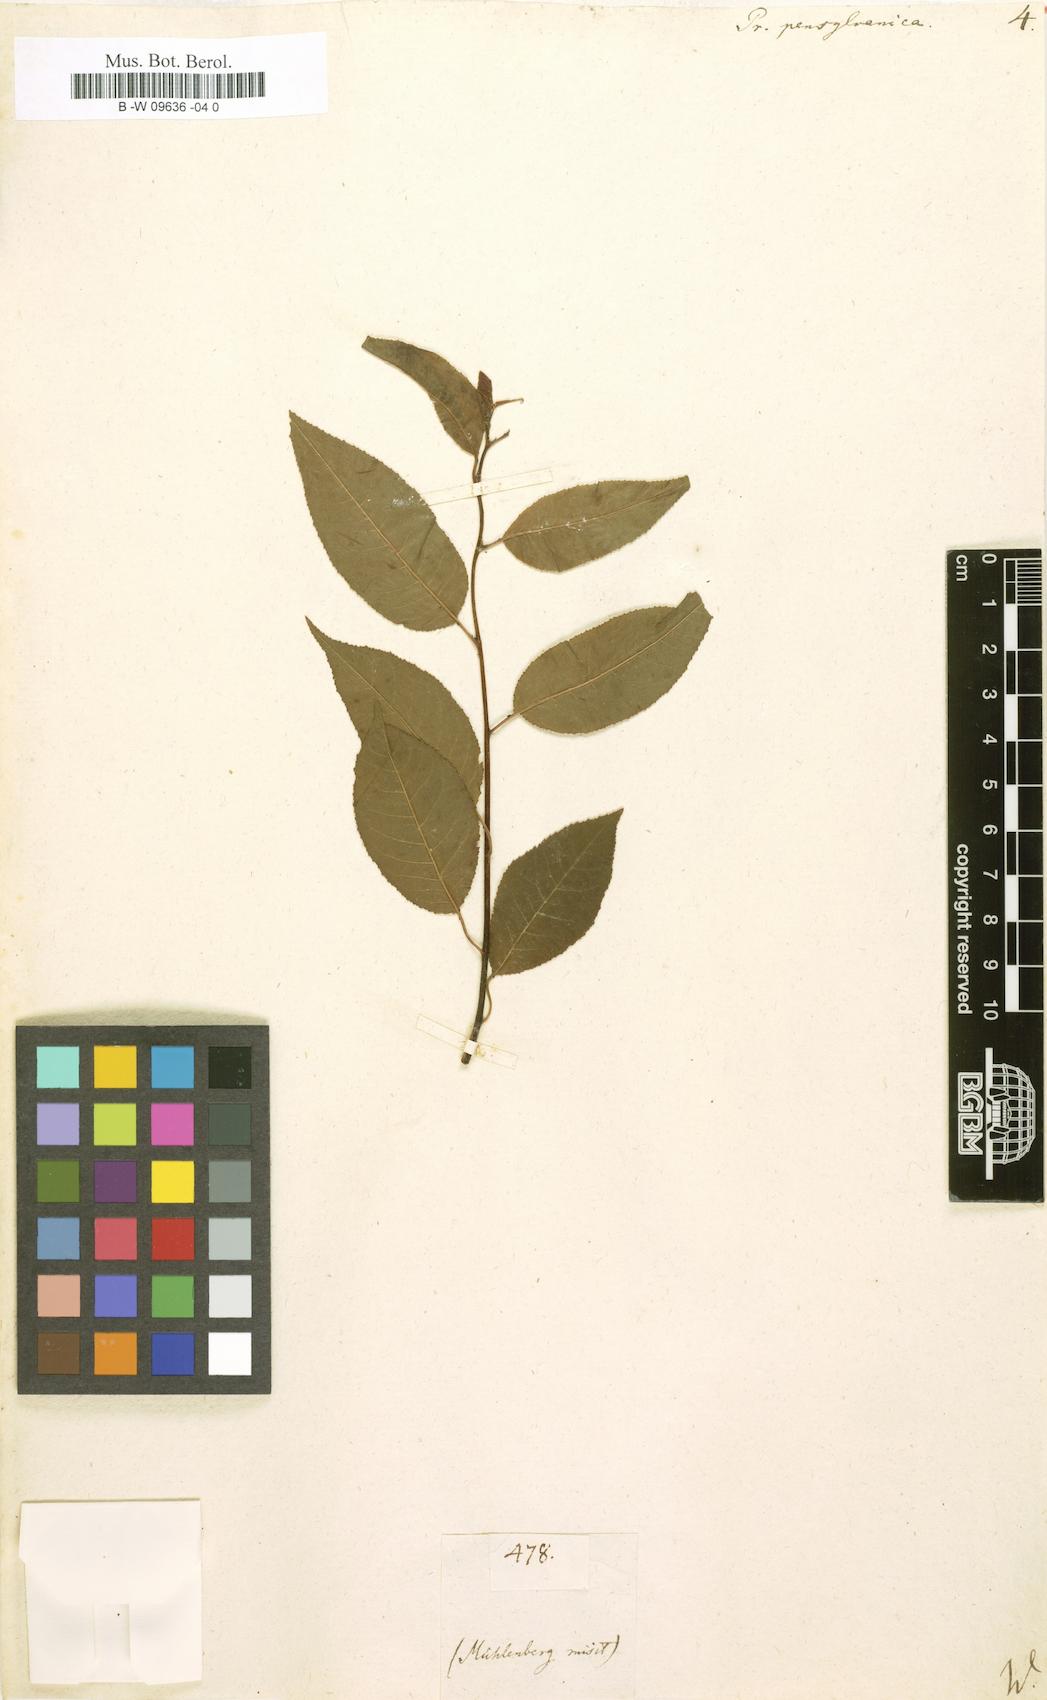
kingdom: Plantae
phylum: Tracheophyta
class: Magnoliopsida
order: Rosales
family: Rosaceae
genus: Prunus
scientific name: Prunus pensylvanica
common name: Pin cherry
